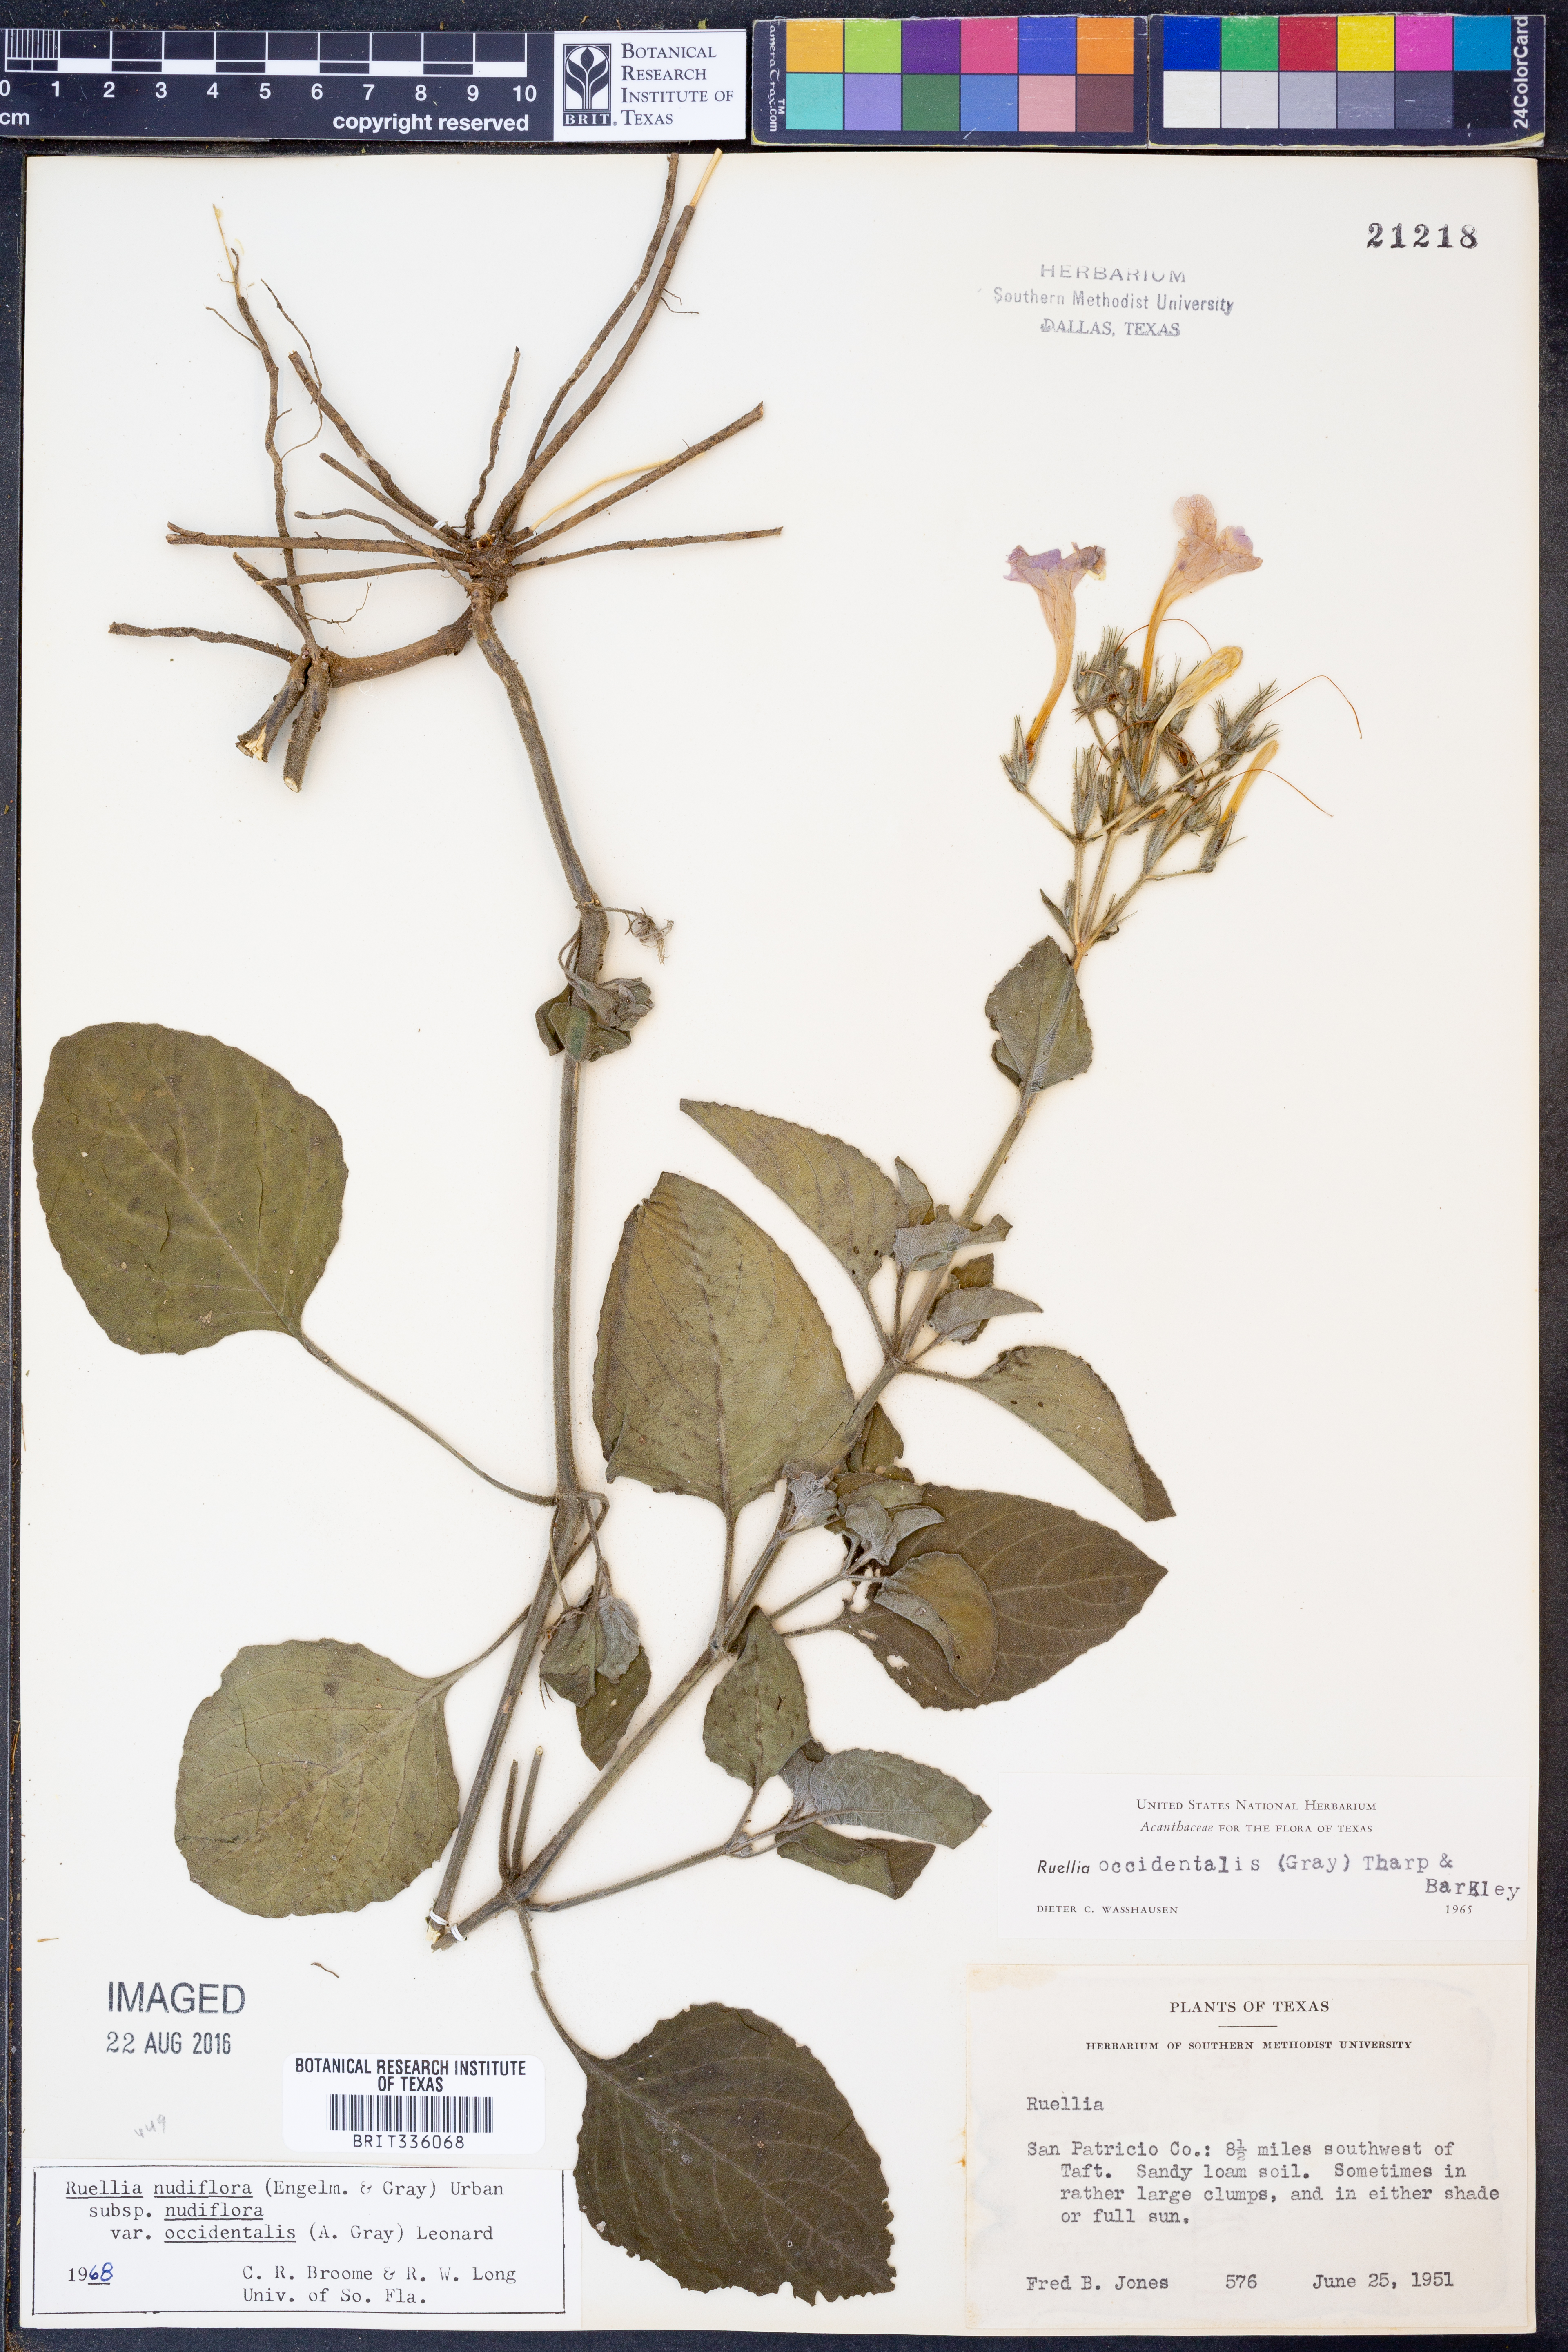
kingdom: Plantae
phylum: Tracheophyta
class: Magnoliopsida
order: Lamiales
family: Acanthaceae
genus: Ruellia
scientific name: Ruellia ciliatiflora
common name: Hairyflower wild petunia
